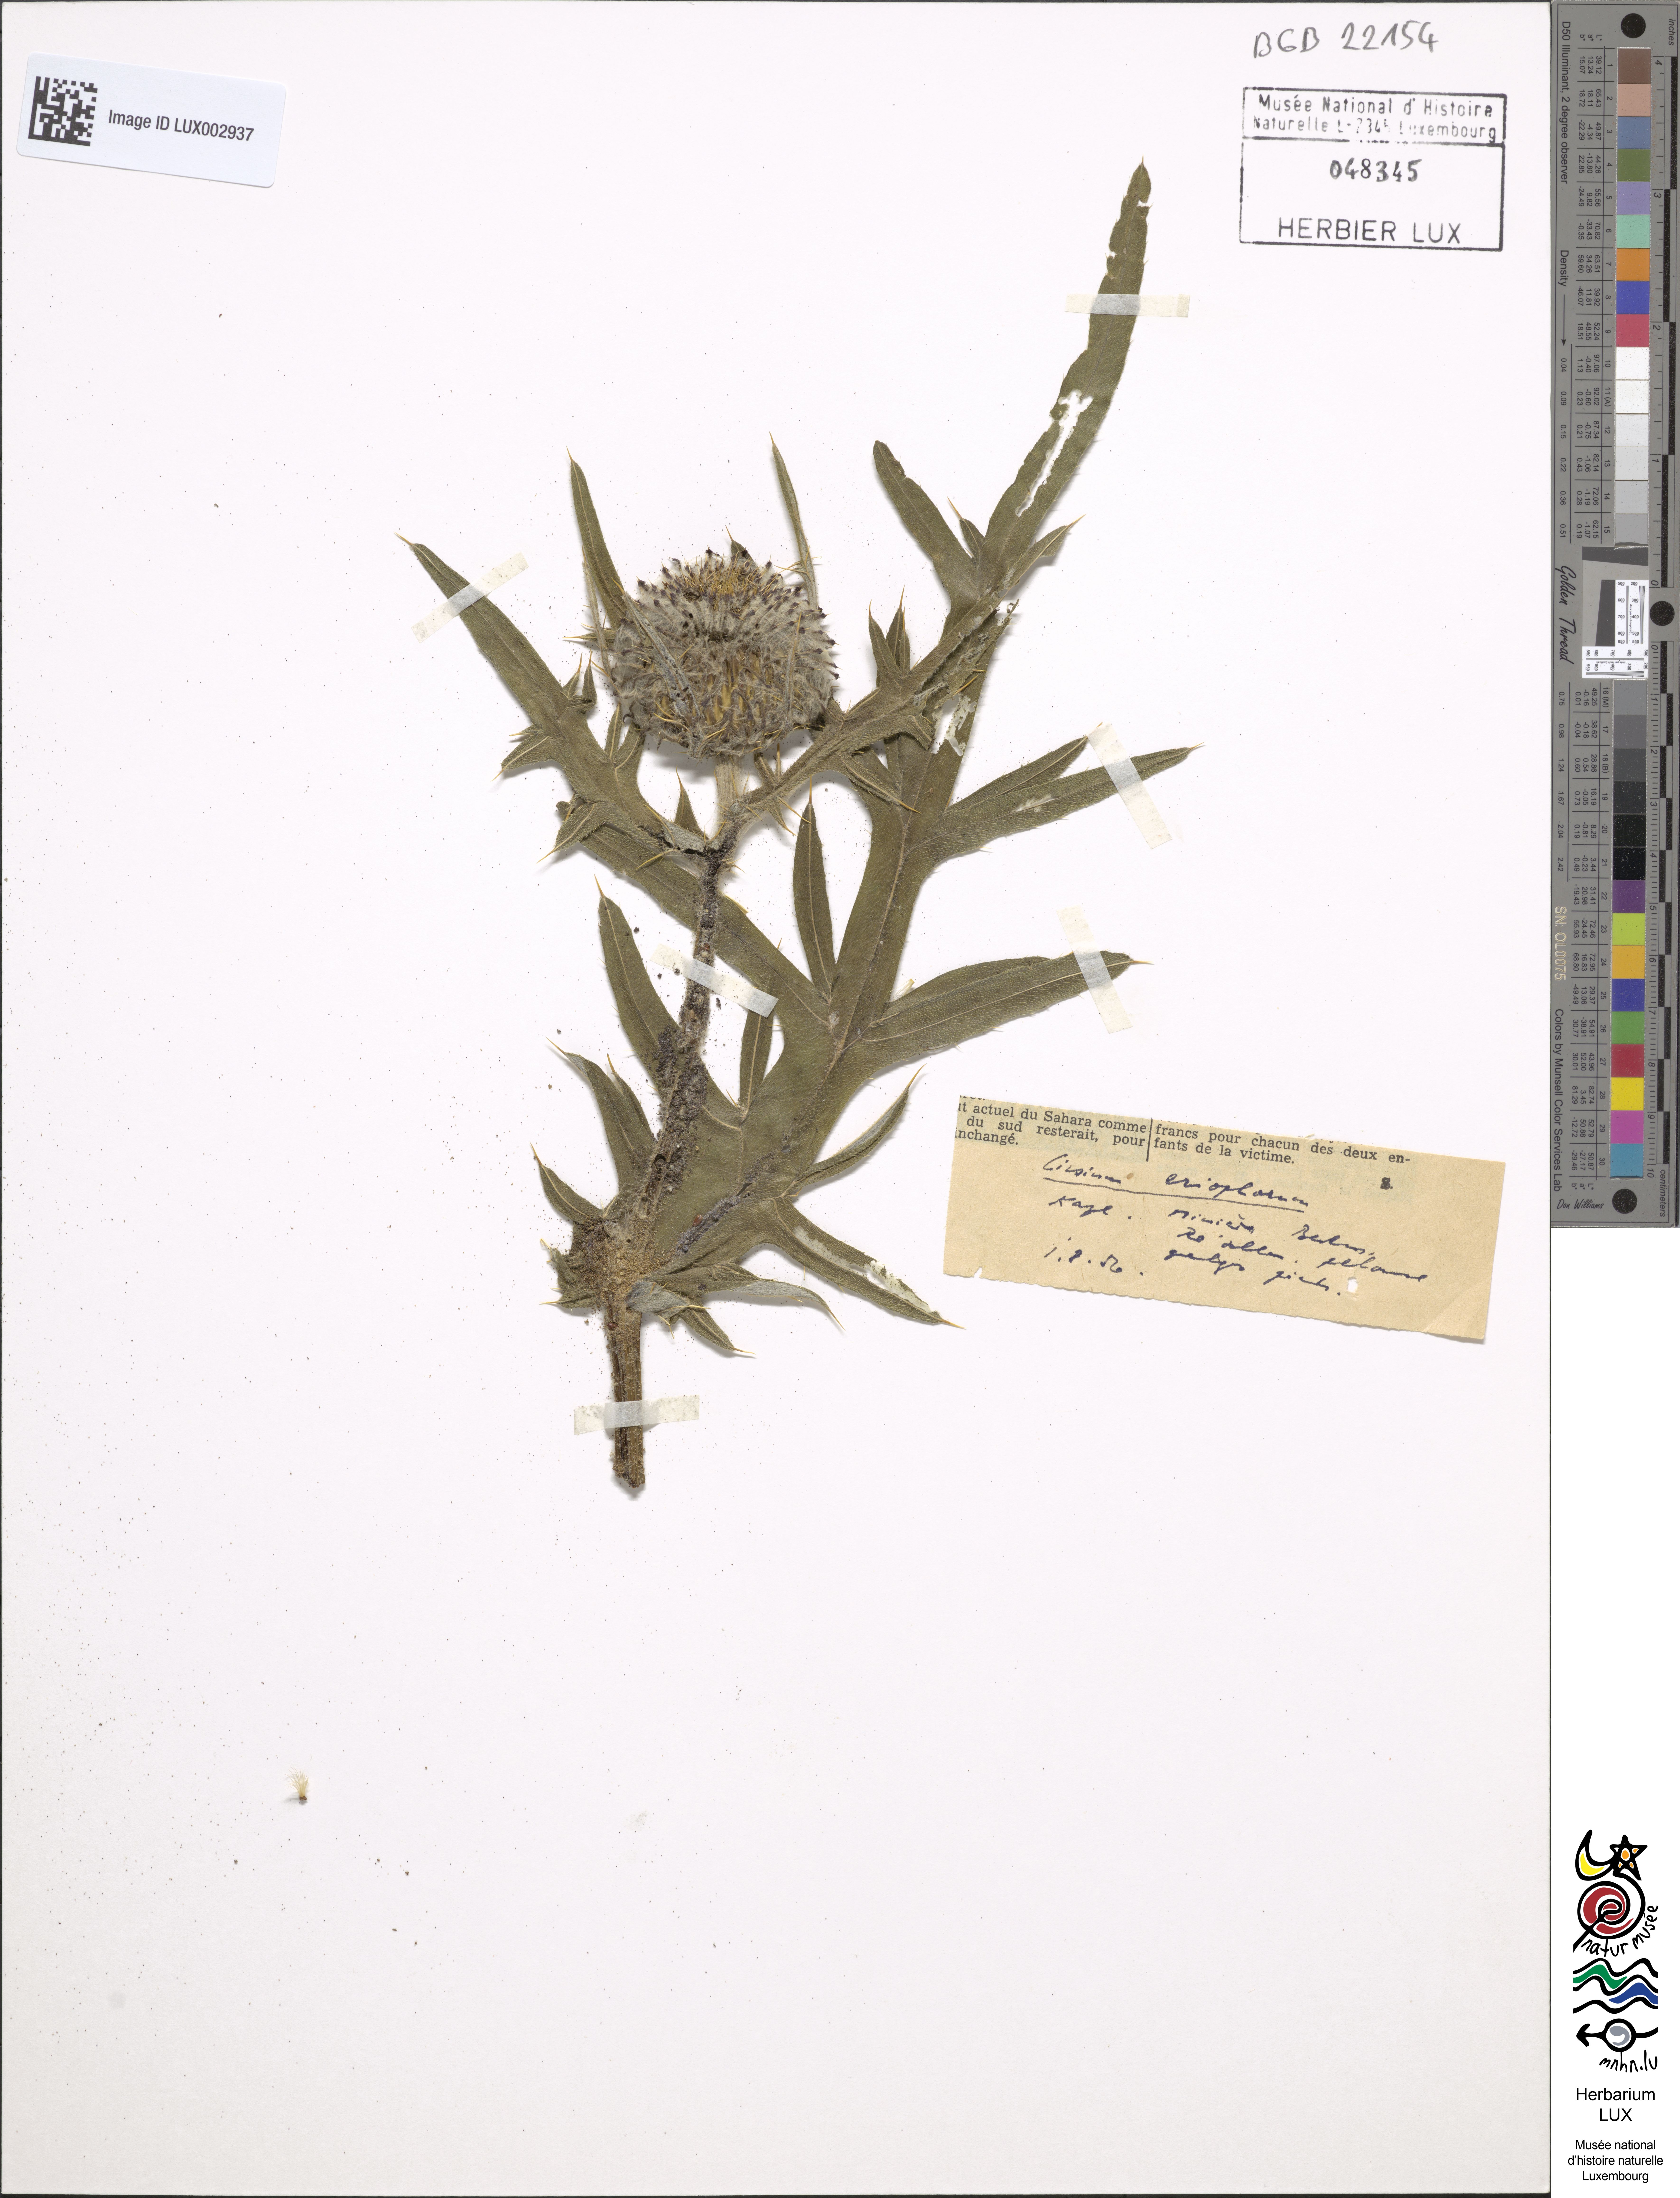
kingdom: Plantae
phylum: Tracheophyta
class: Magnoliopsida
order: Asterales
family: Asteraceae
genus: Lophiolepis
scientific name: Lophiolepis eriophora
